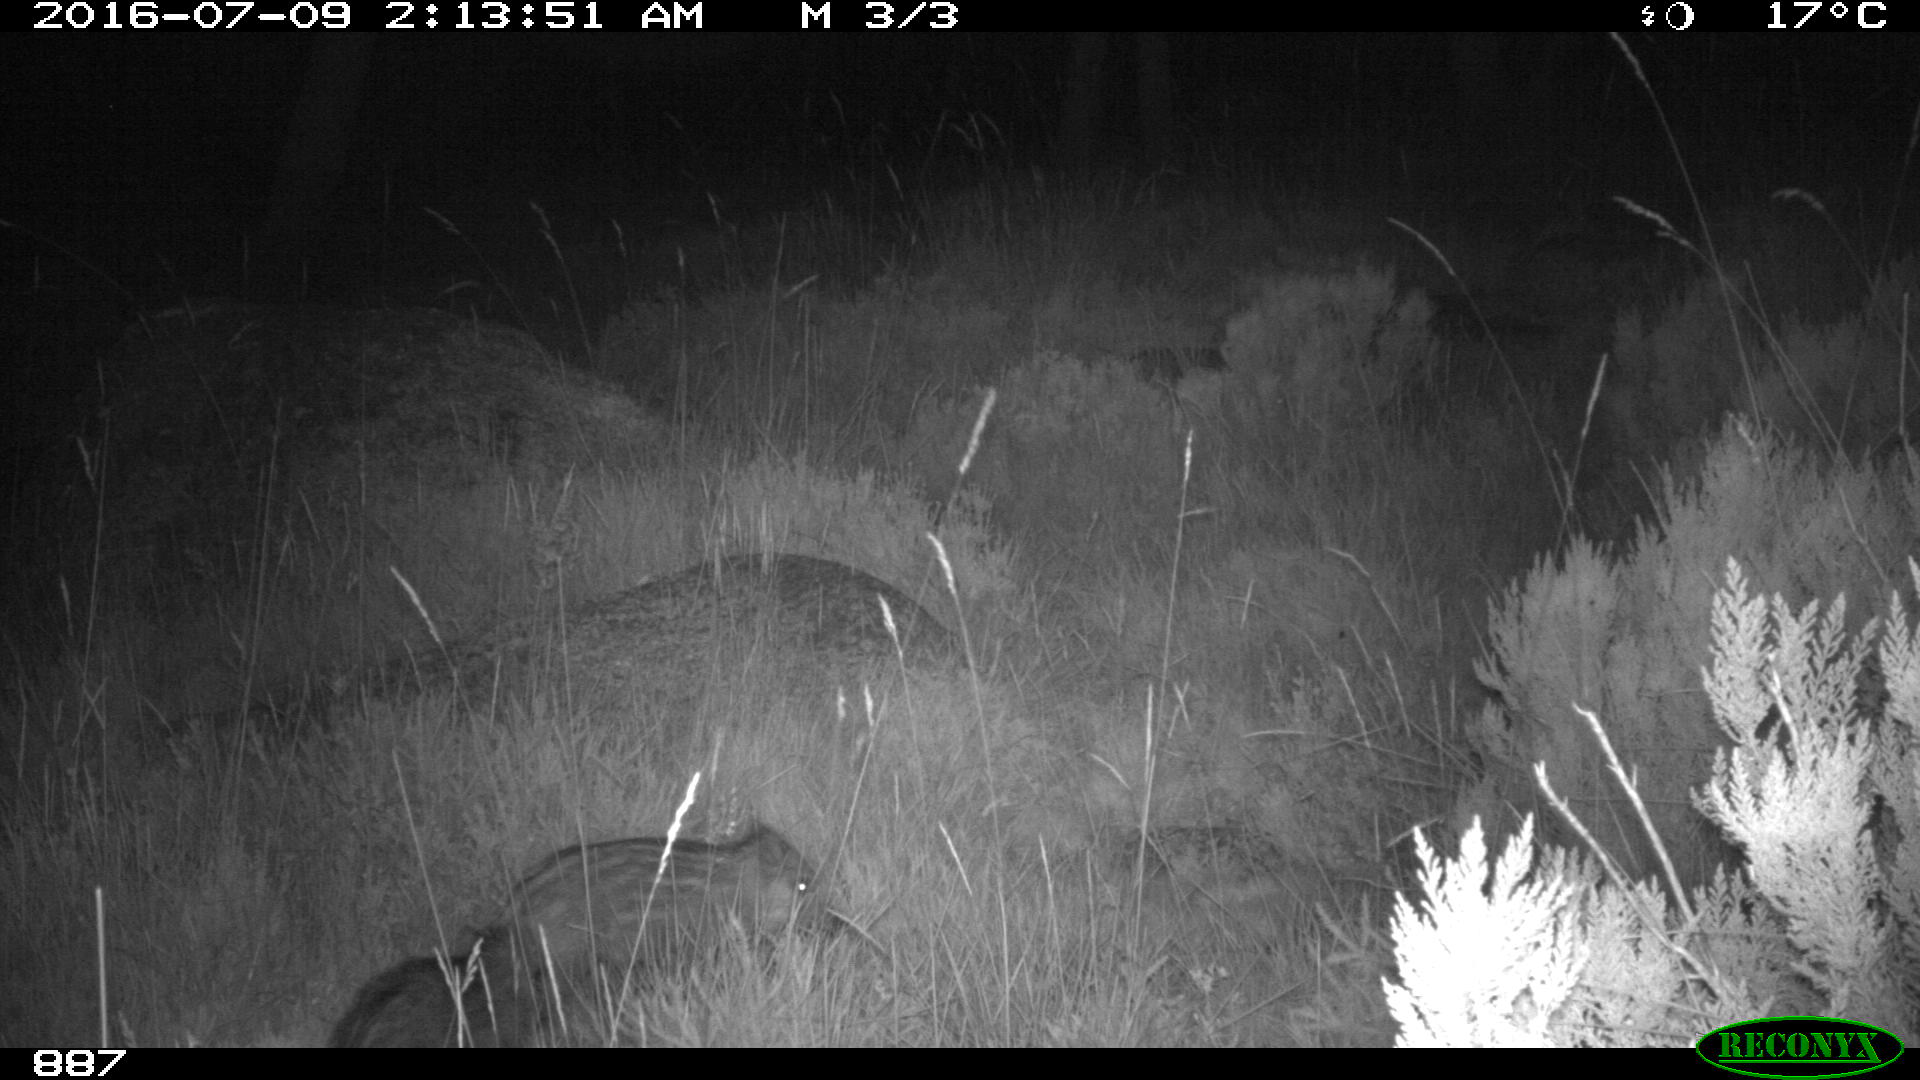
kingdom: Animalia
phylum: Chordata
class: Mammalia
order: Artiodactyla
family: Suidae
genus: Sus
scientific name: Sus scrofa
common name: Wild boar
